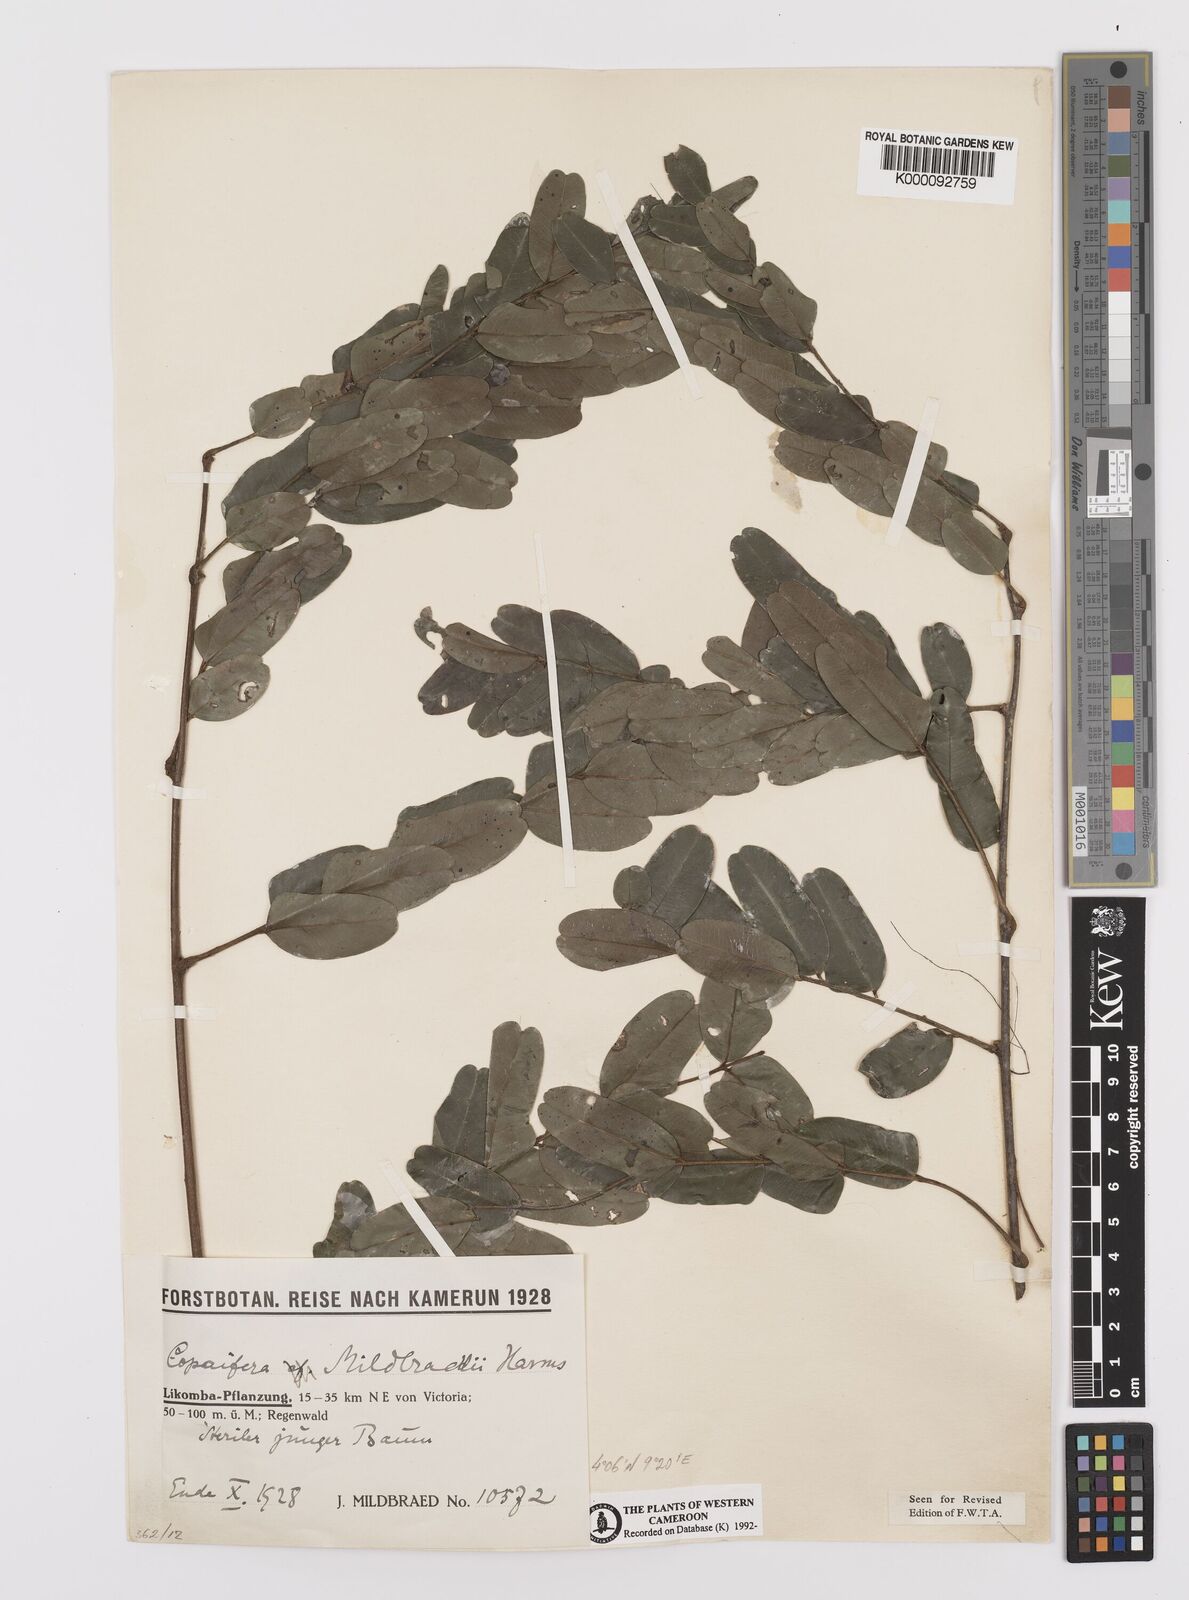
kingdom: Plantae
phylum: Tracheophyta
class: Magnoliopsida
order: Fabales
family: Fabaceae
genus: Copaifera
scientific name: Copaifera mildbraedii
